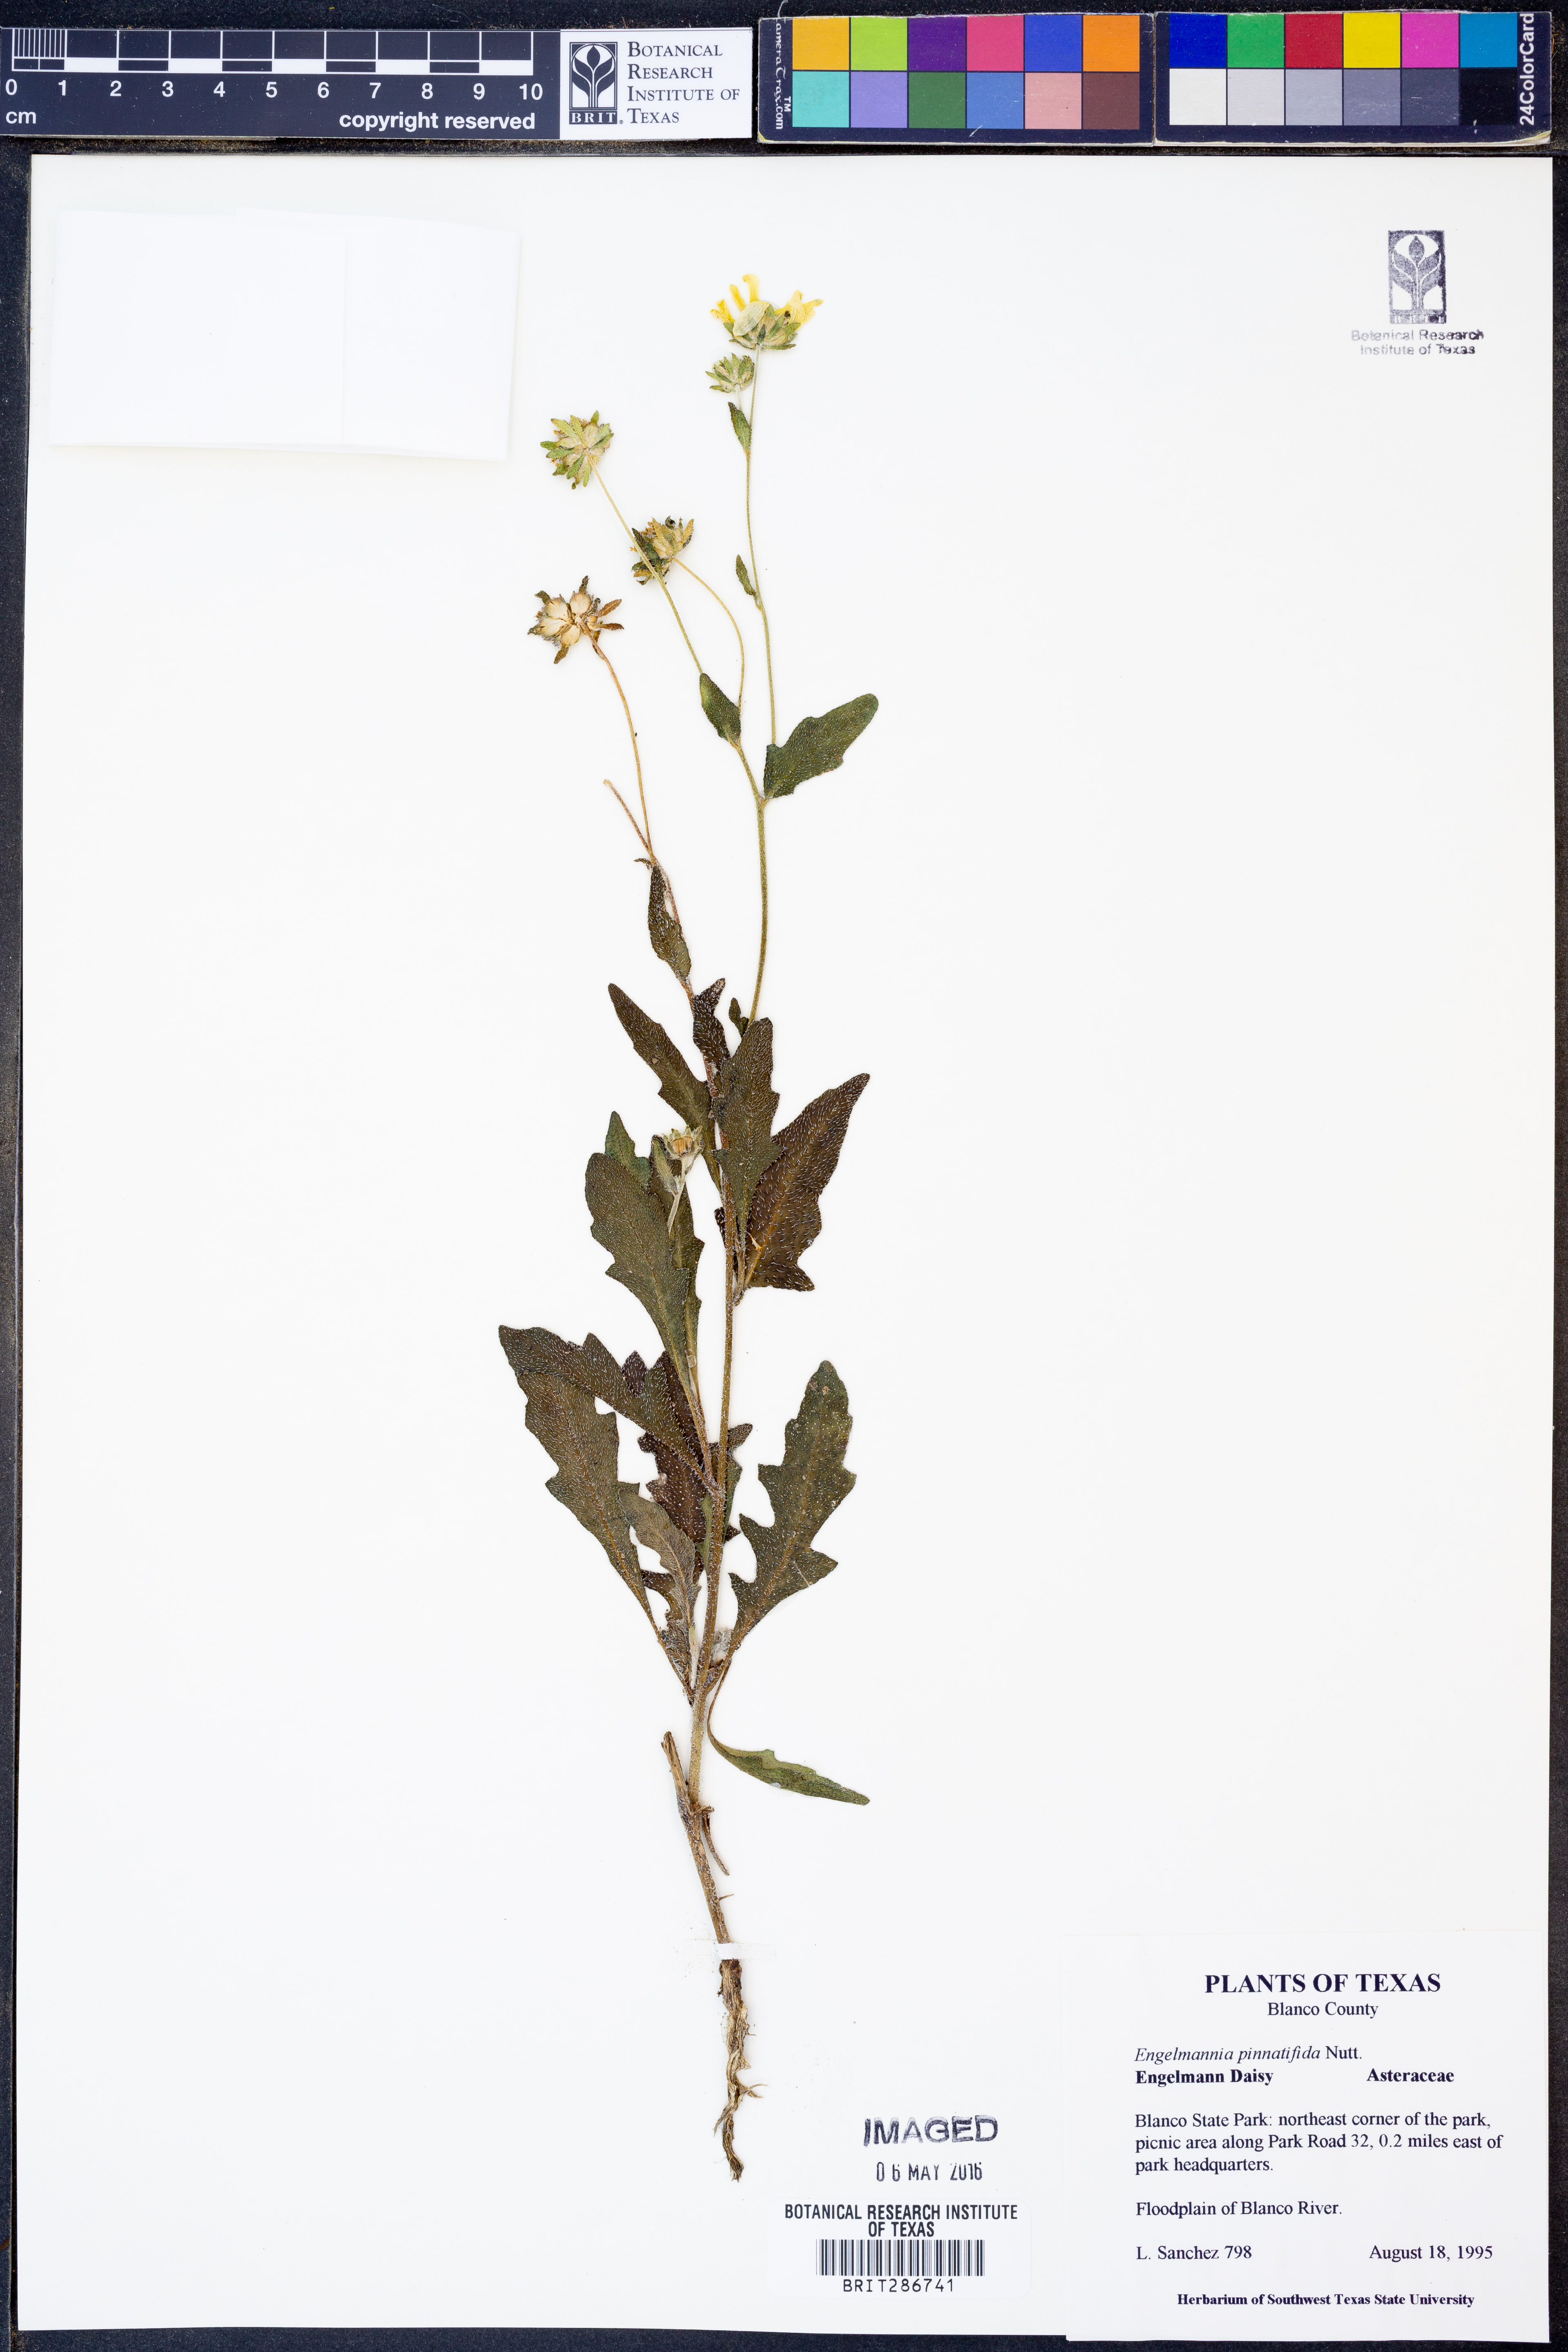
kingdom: Plantae
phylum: Tracheophyta
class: Magnoliopsida
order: Asterales
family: Asteraceae
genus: Engelmannia
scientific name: Engelmannia peristenia
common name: Engelmann's daisy
